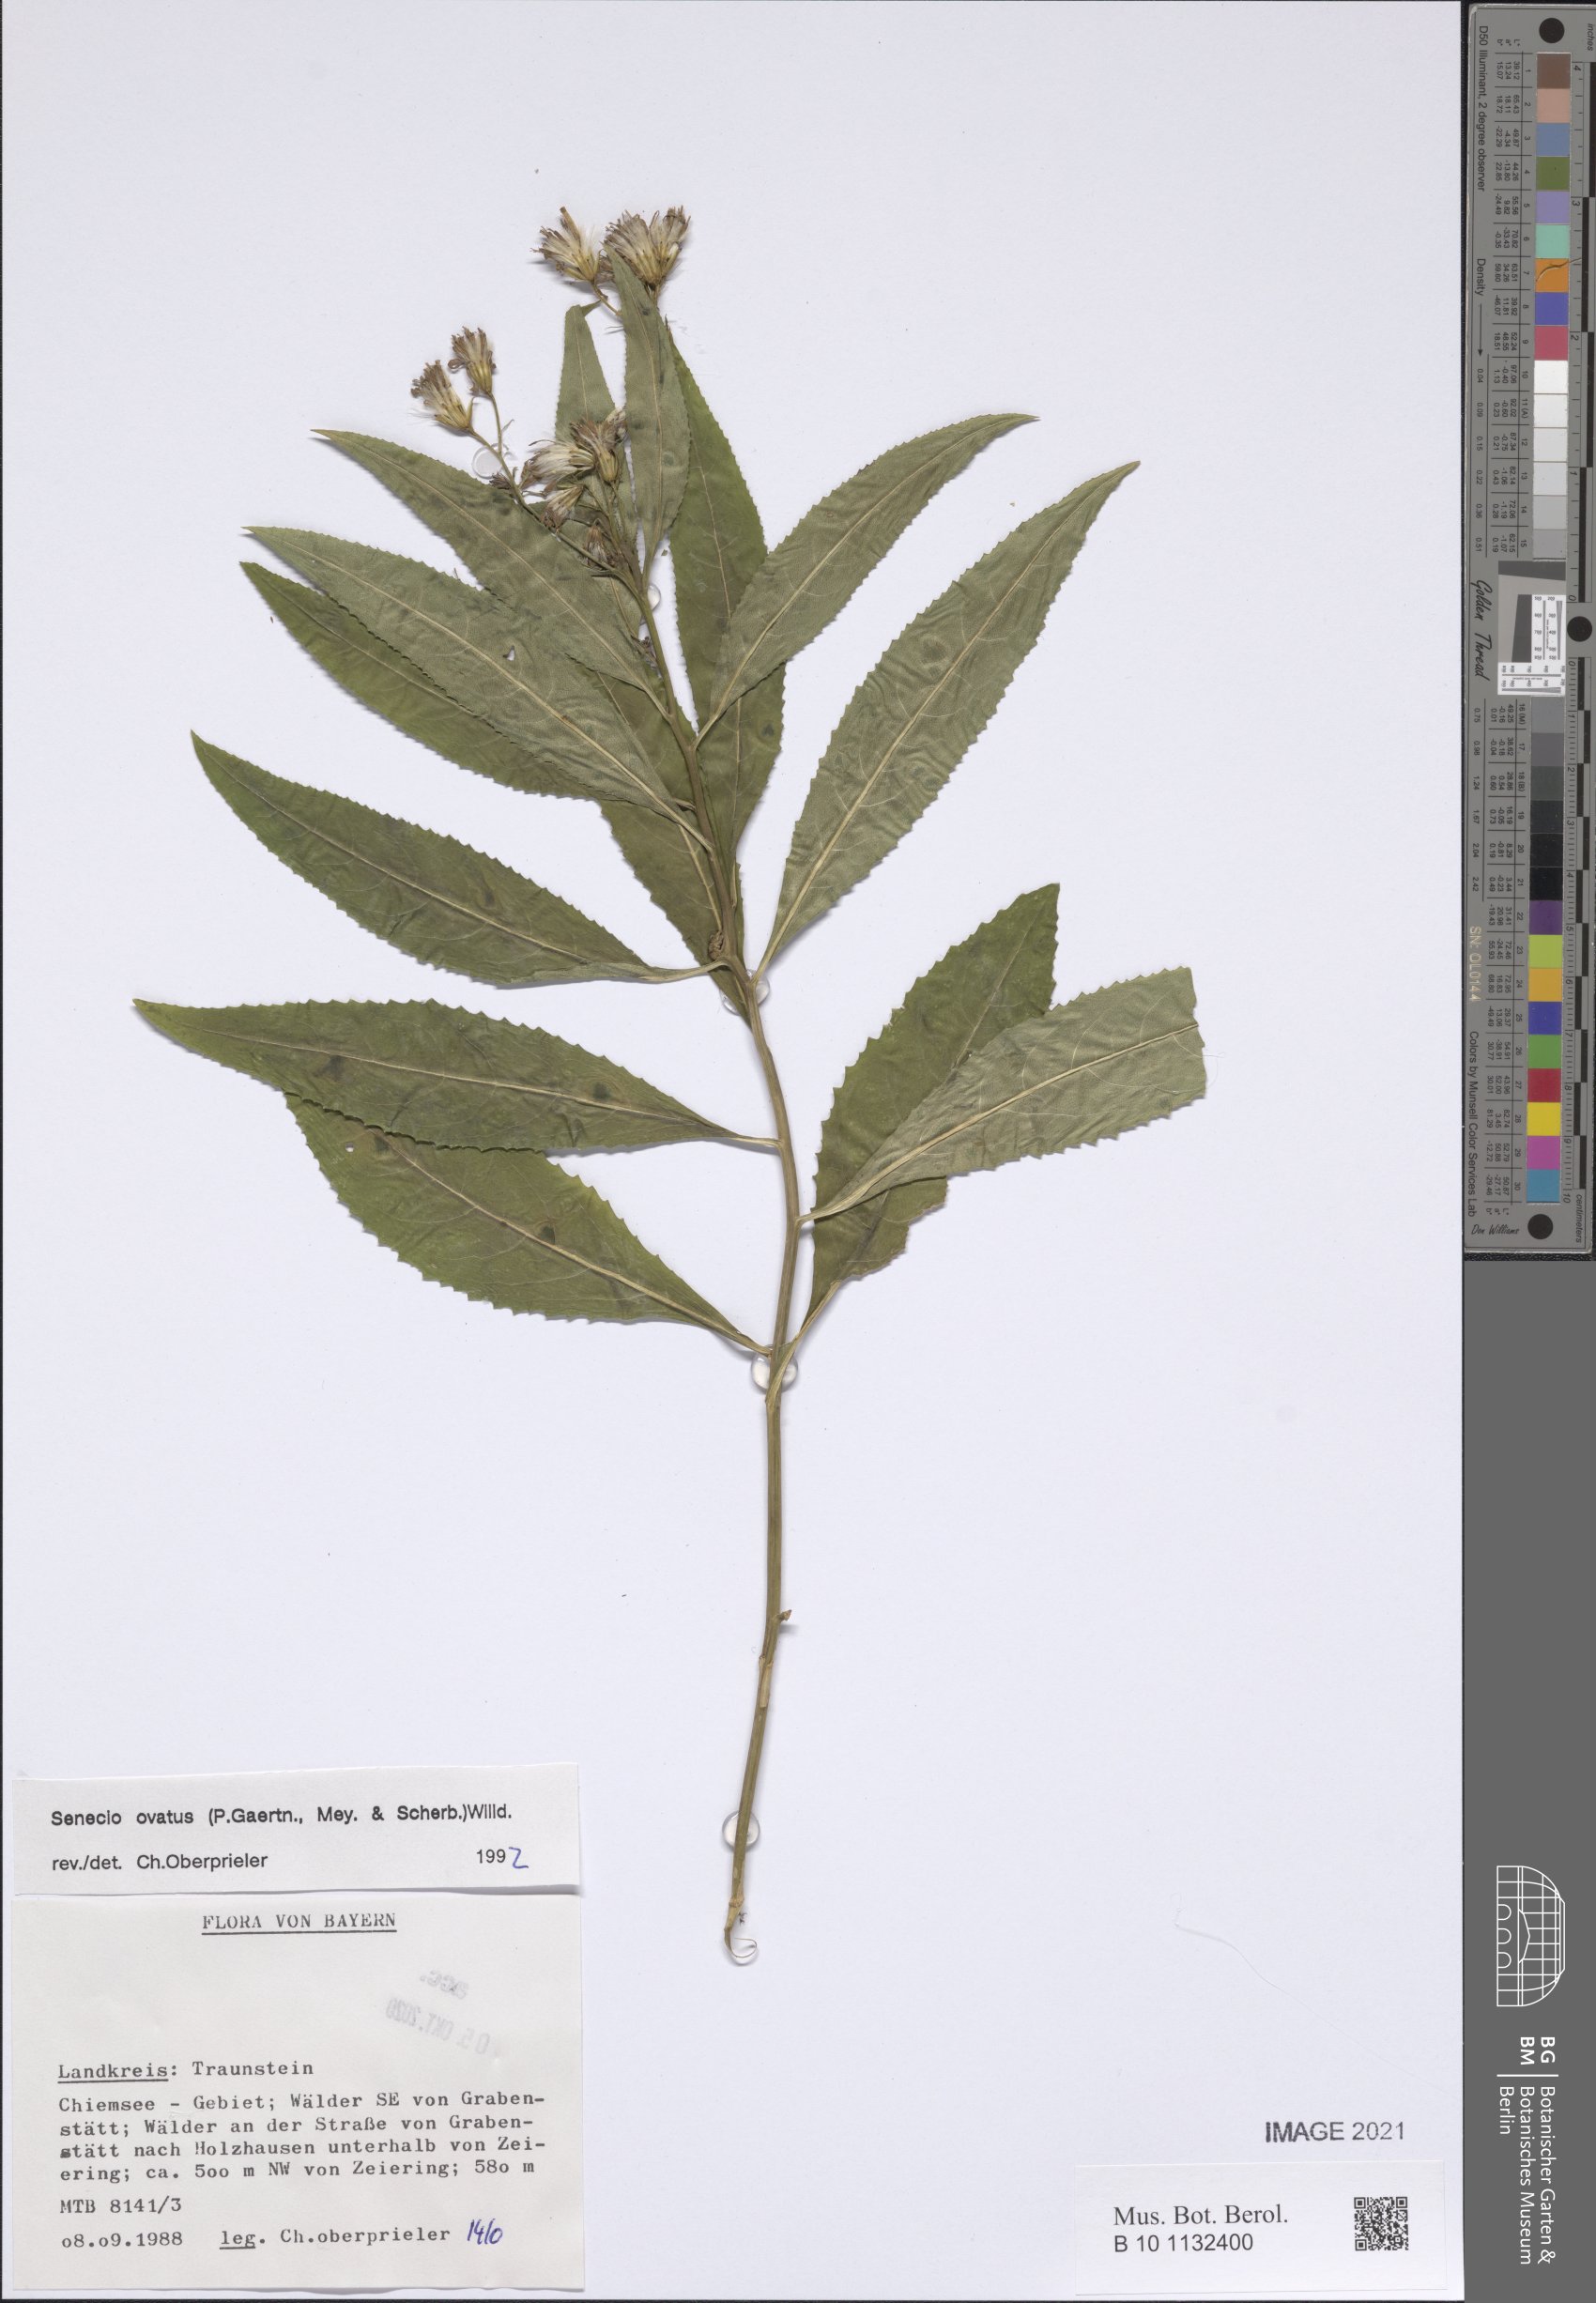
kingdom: Plantae
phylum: Tracheophyta
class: Magnoliopsida
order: Asterales
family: Asteraceae
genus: Senecio
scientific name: Senecio ovatus
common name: Wood ragwort
